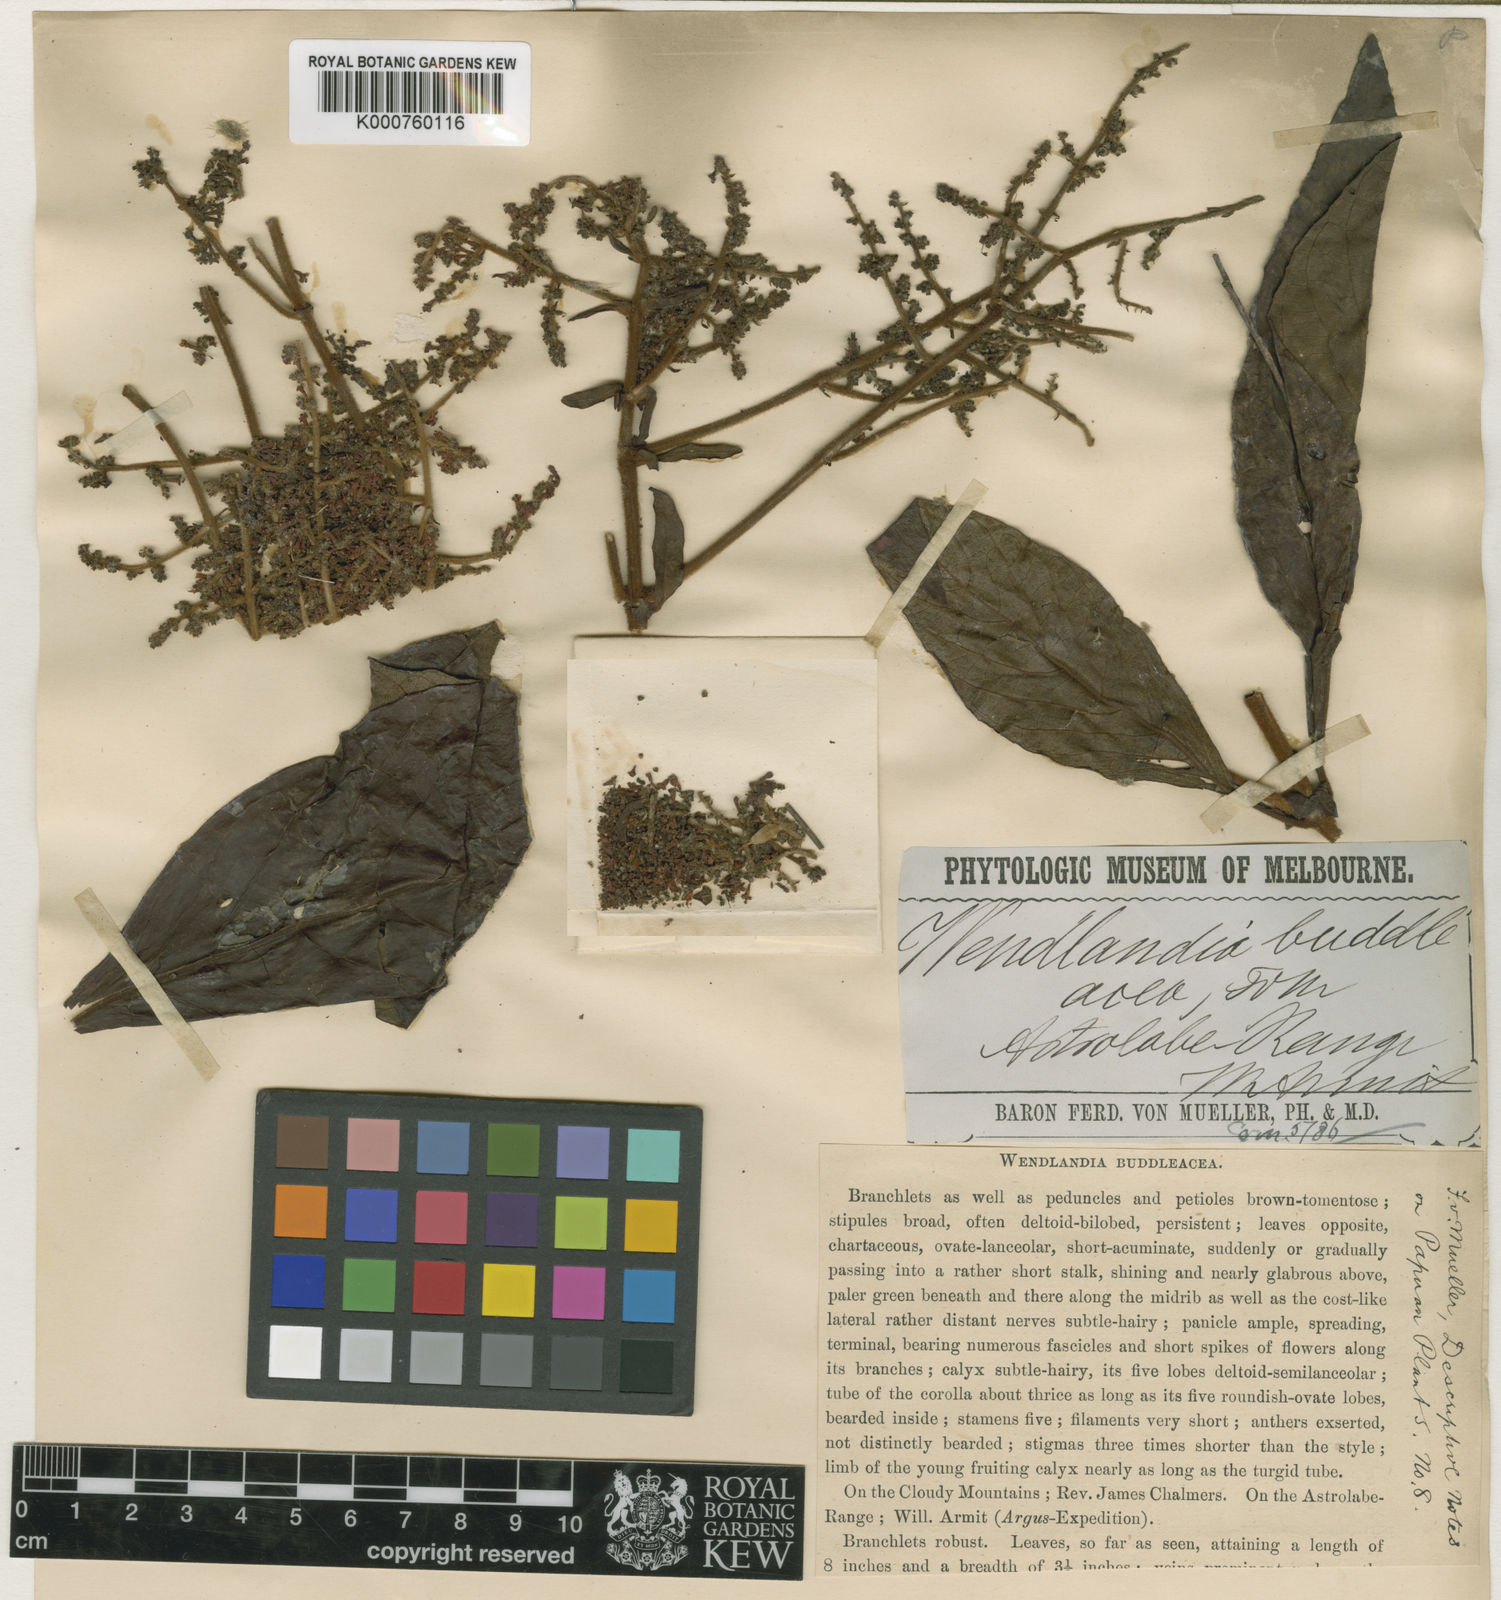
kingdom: Plantae
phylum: Tracheophyta
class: Magnoliopsida
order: Gentianales
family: Rubiaceae
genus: Wendlandia
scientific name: Wendlandia buddleacea
